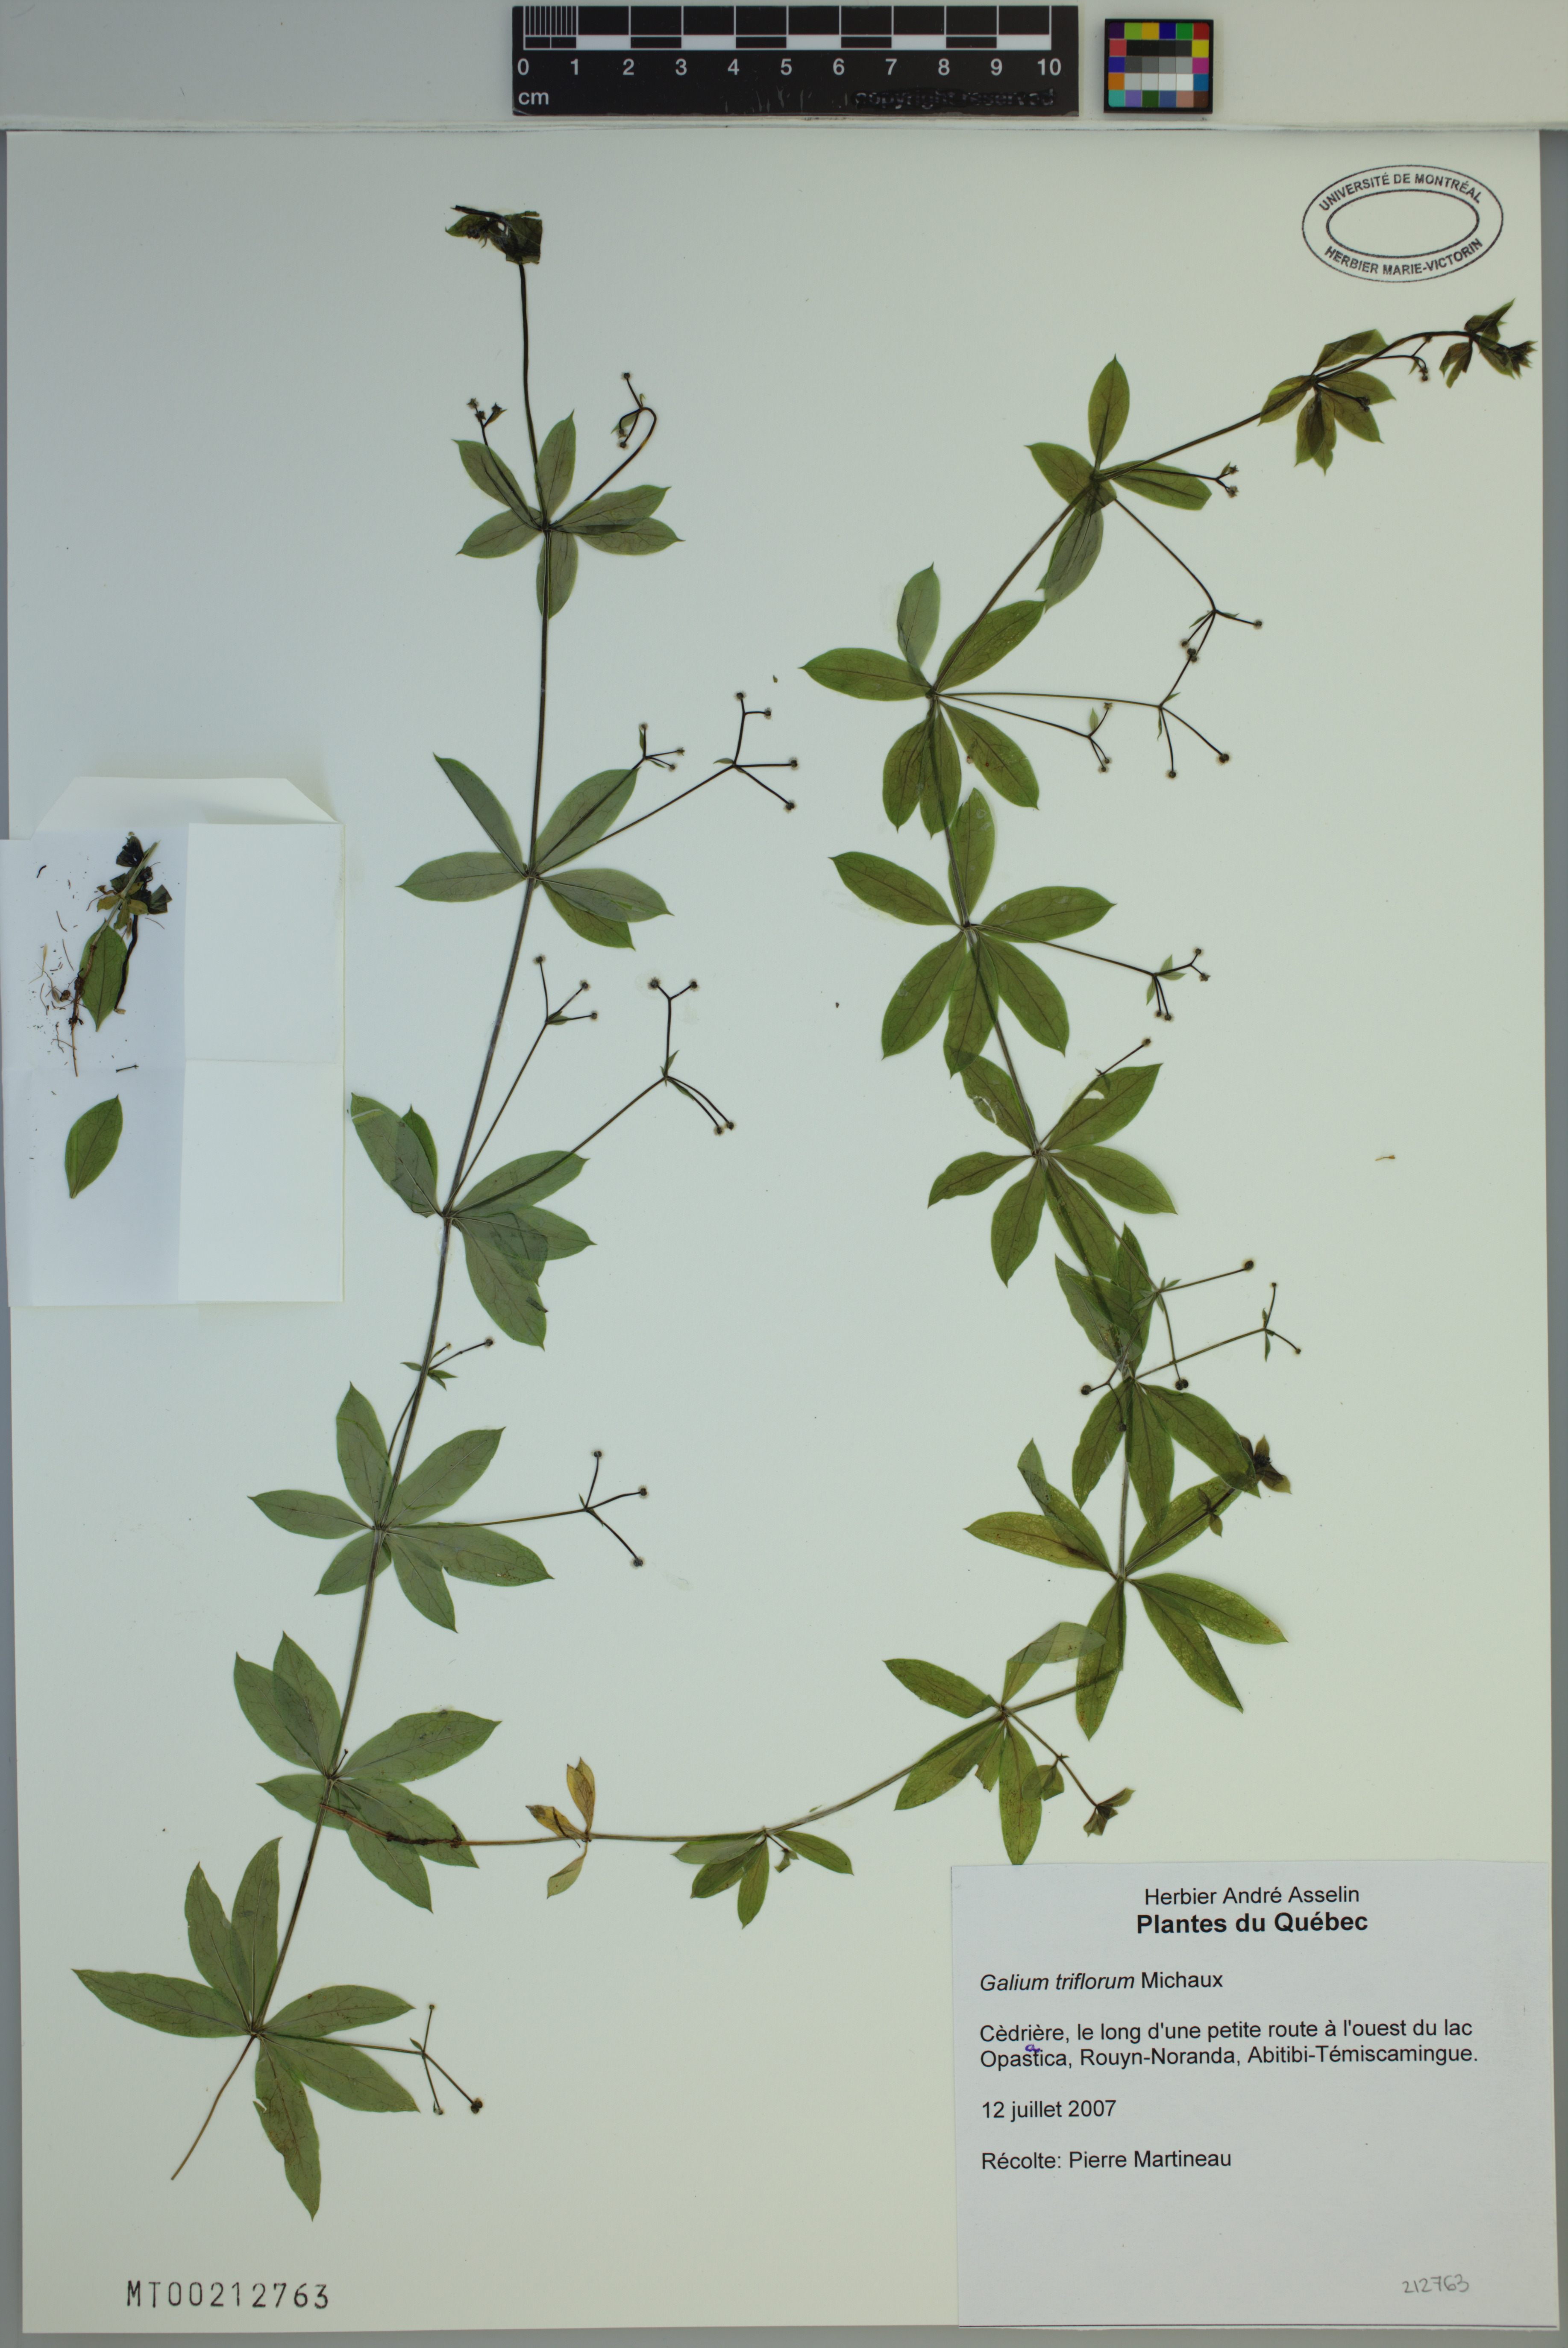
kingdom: Plantae
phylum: Tracheophyta
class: Magnoliopsida
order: Gentianales
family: Rubiaceae
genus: Galium
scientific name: Galium triflorum
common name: Fragrant bedstraw
